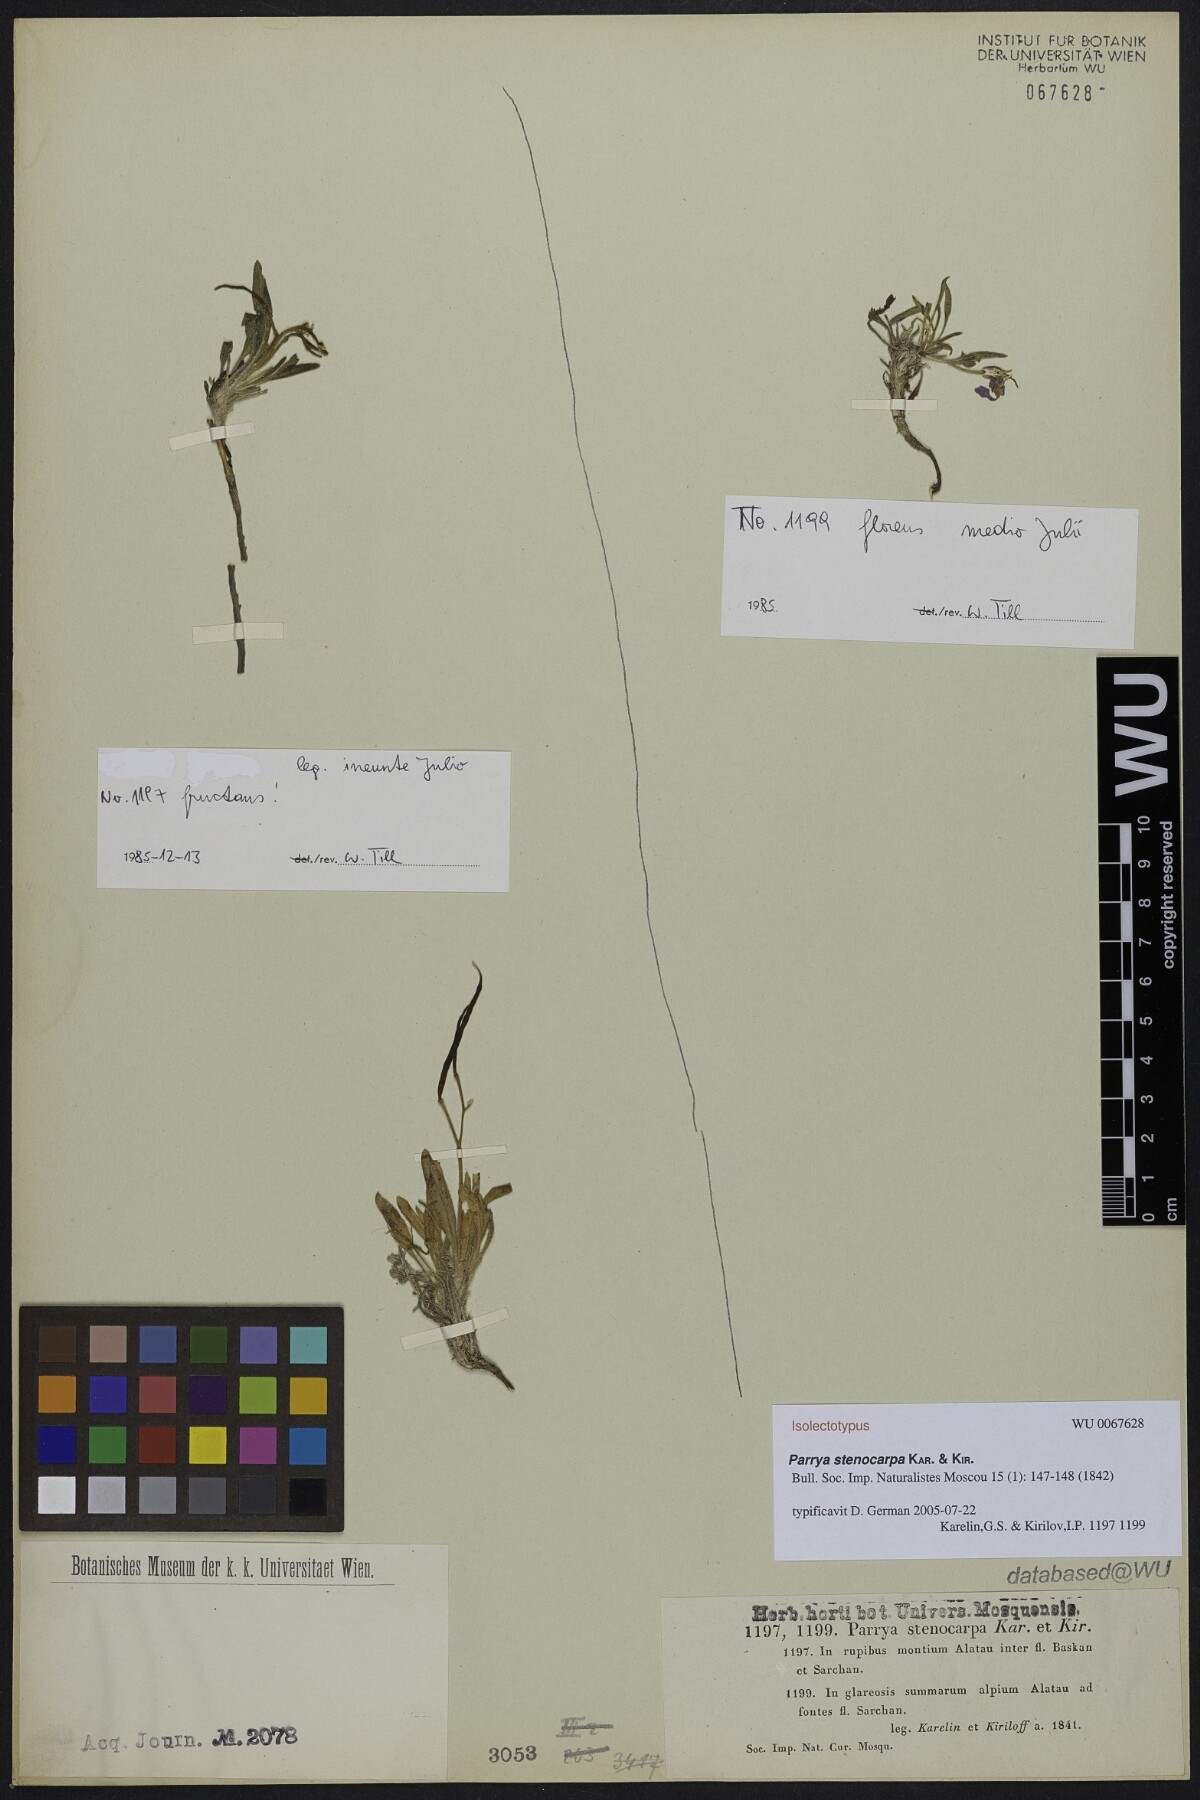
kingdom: Plantae
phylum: Tracheophyta
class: Magnoliopsida
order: Brassicales
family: Brassicaceae
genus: Parrya
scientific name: Parrya stenocarpa
